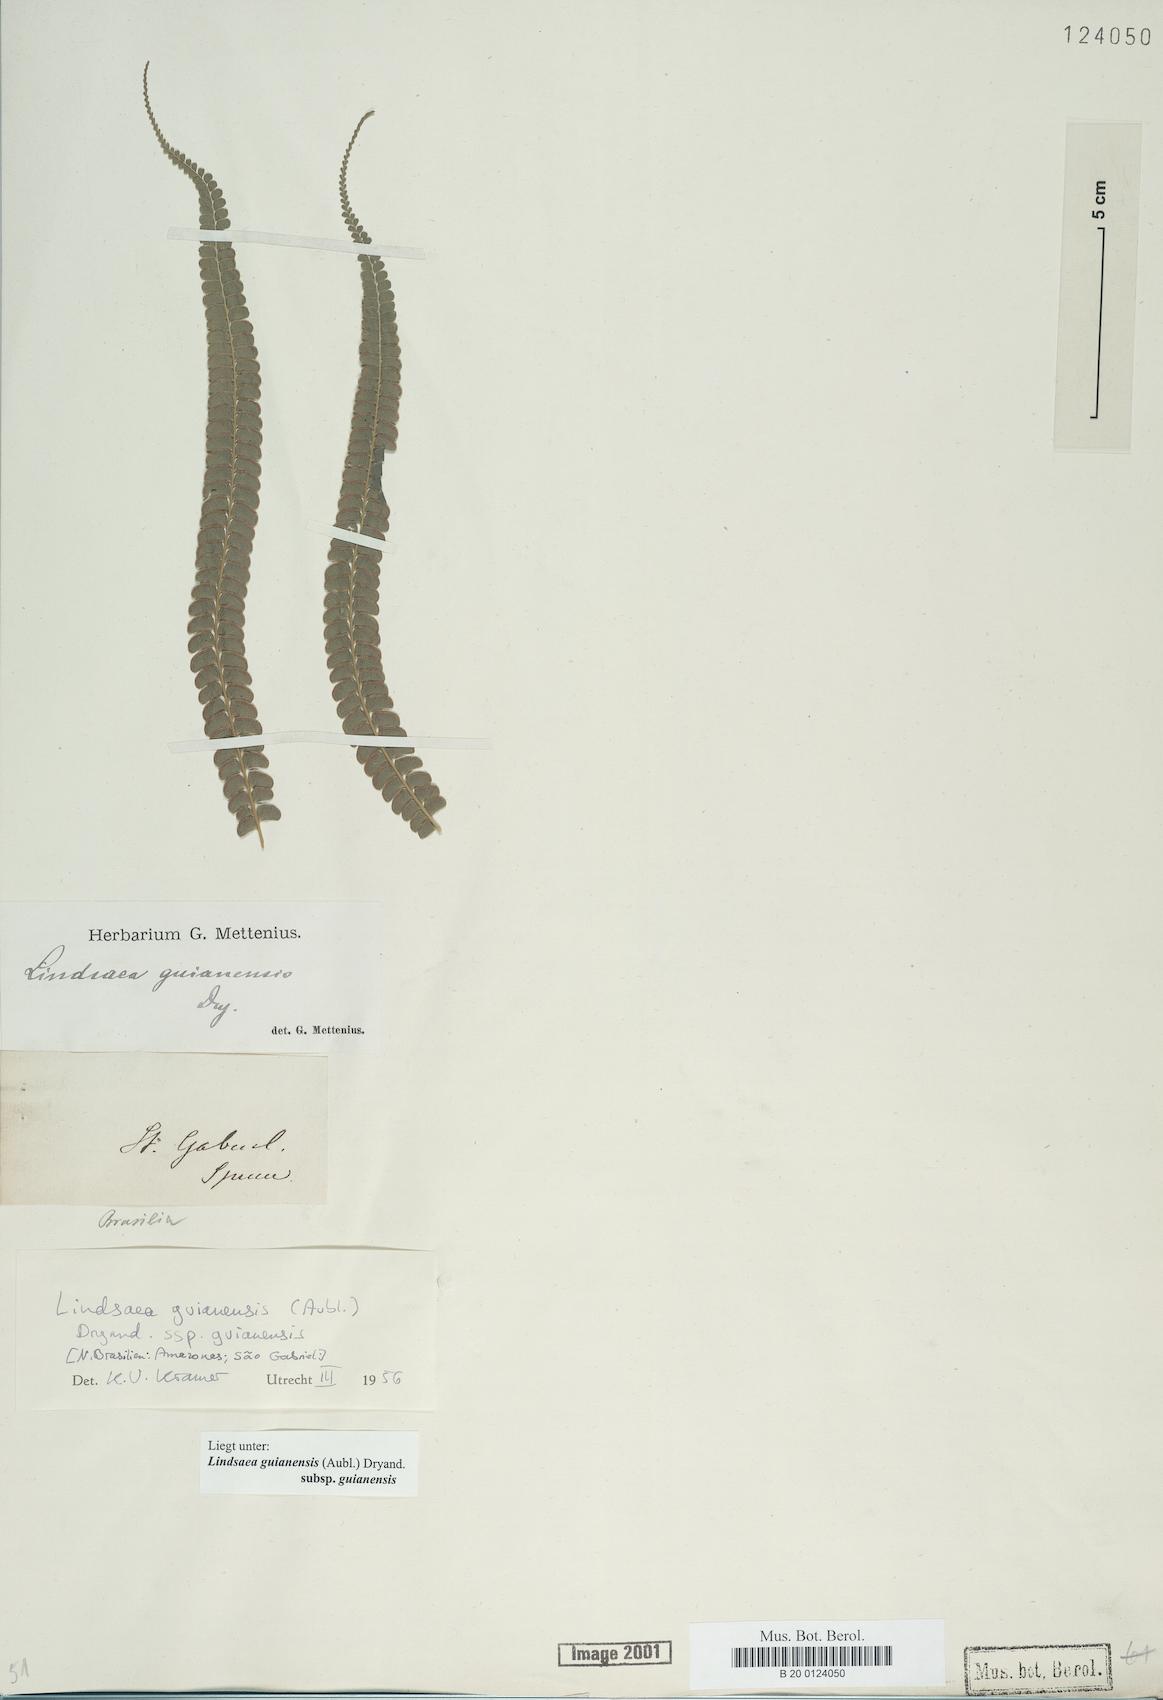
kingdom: Plantae
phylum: Tracheophyta
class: Polypodiopsida
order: Polypodiales
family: Lindsaeaceae
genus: Lindsaea
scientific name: Lindsaea guianensis
